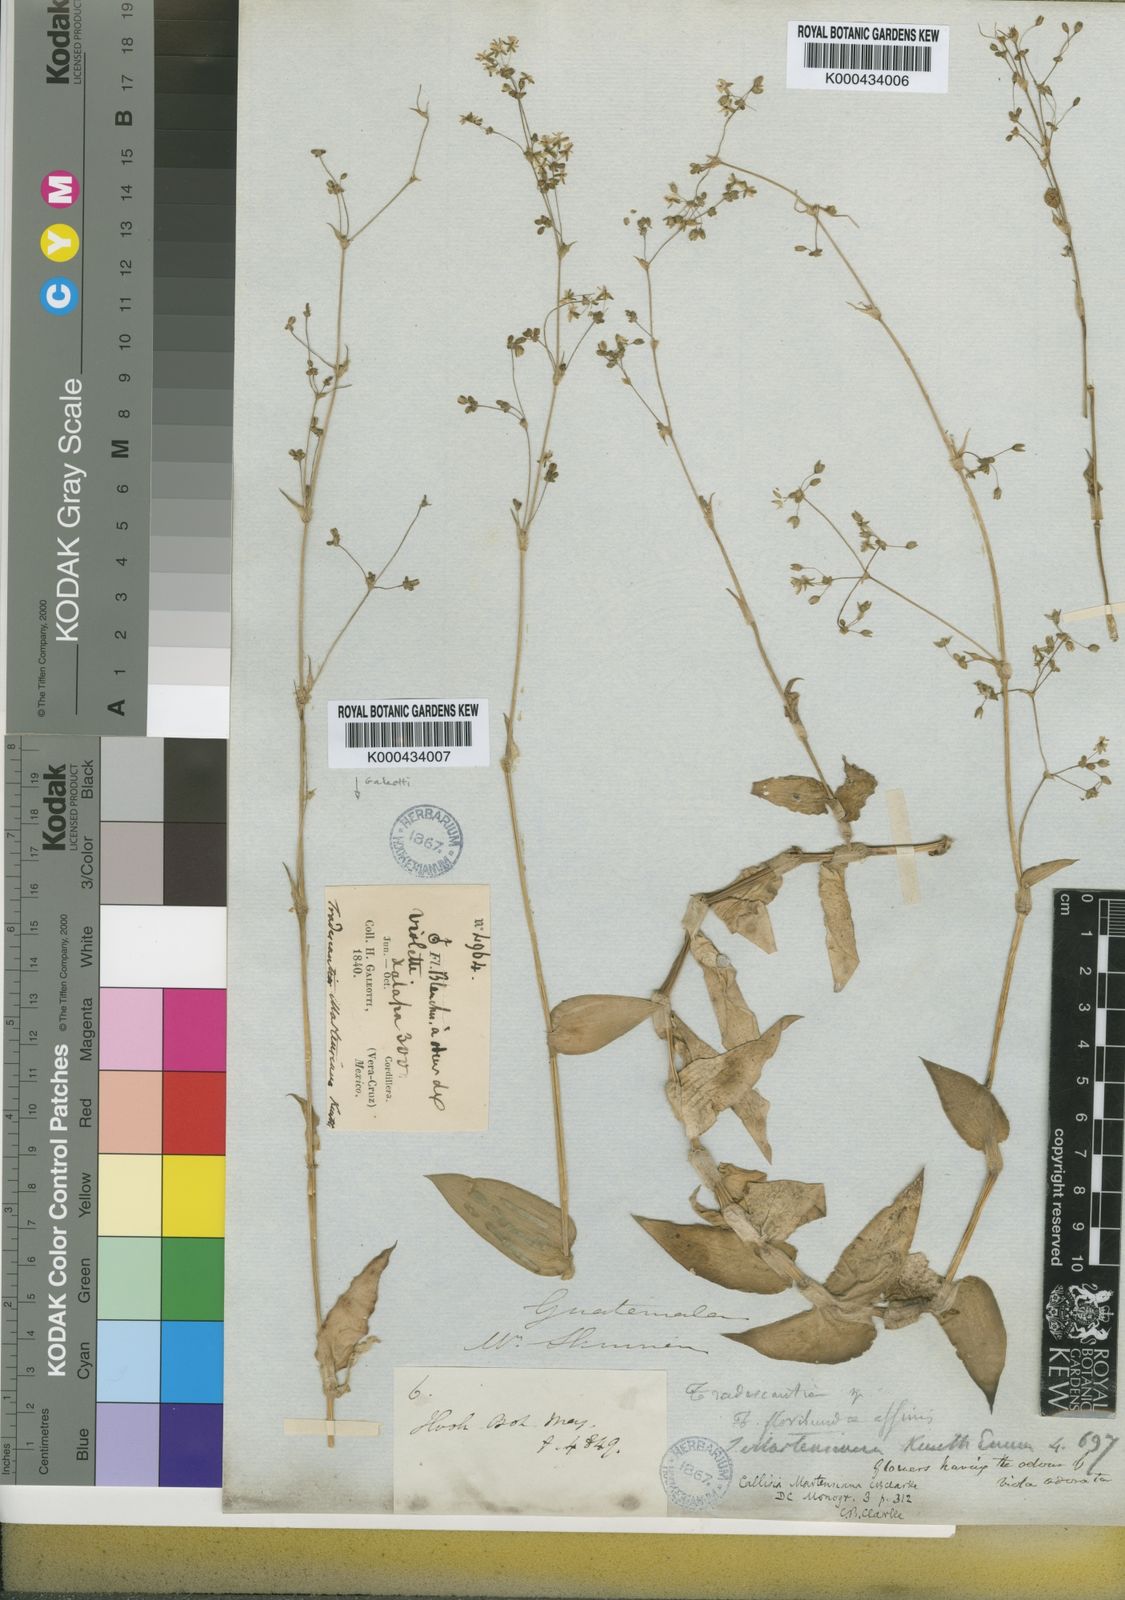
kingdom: Plantae
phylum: Tracheophyta
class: Liliopsida
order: Commelinales
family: Commelinaceae
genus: Callisia
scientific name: Callisia multiflora
